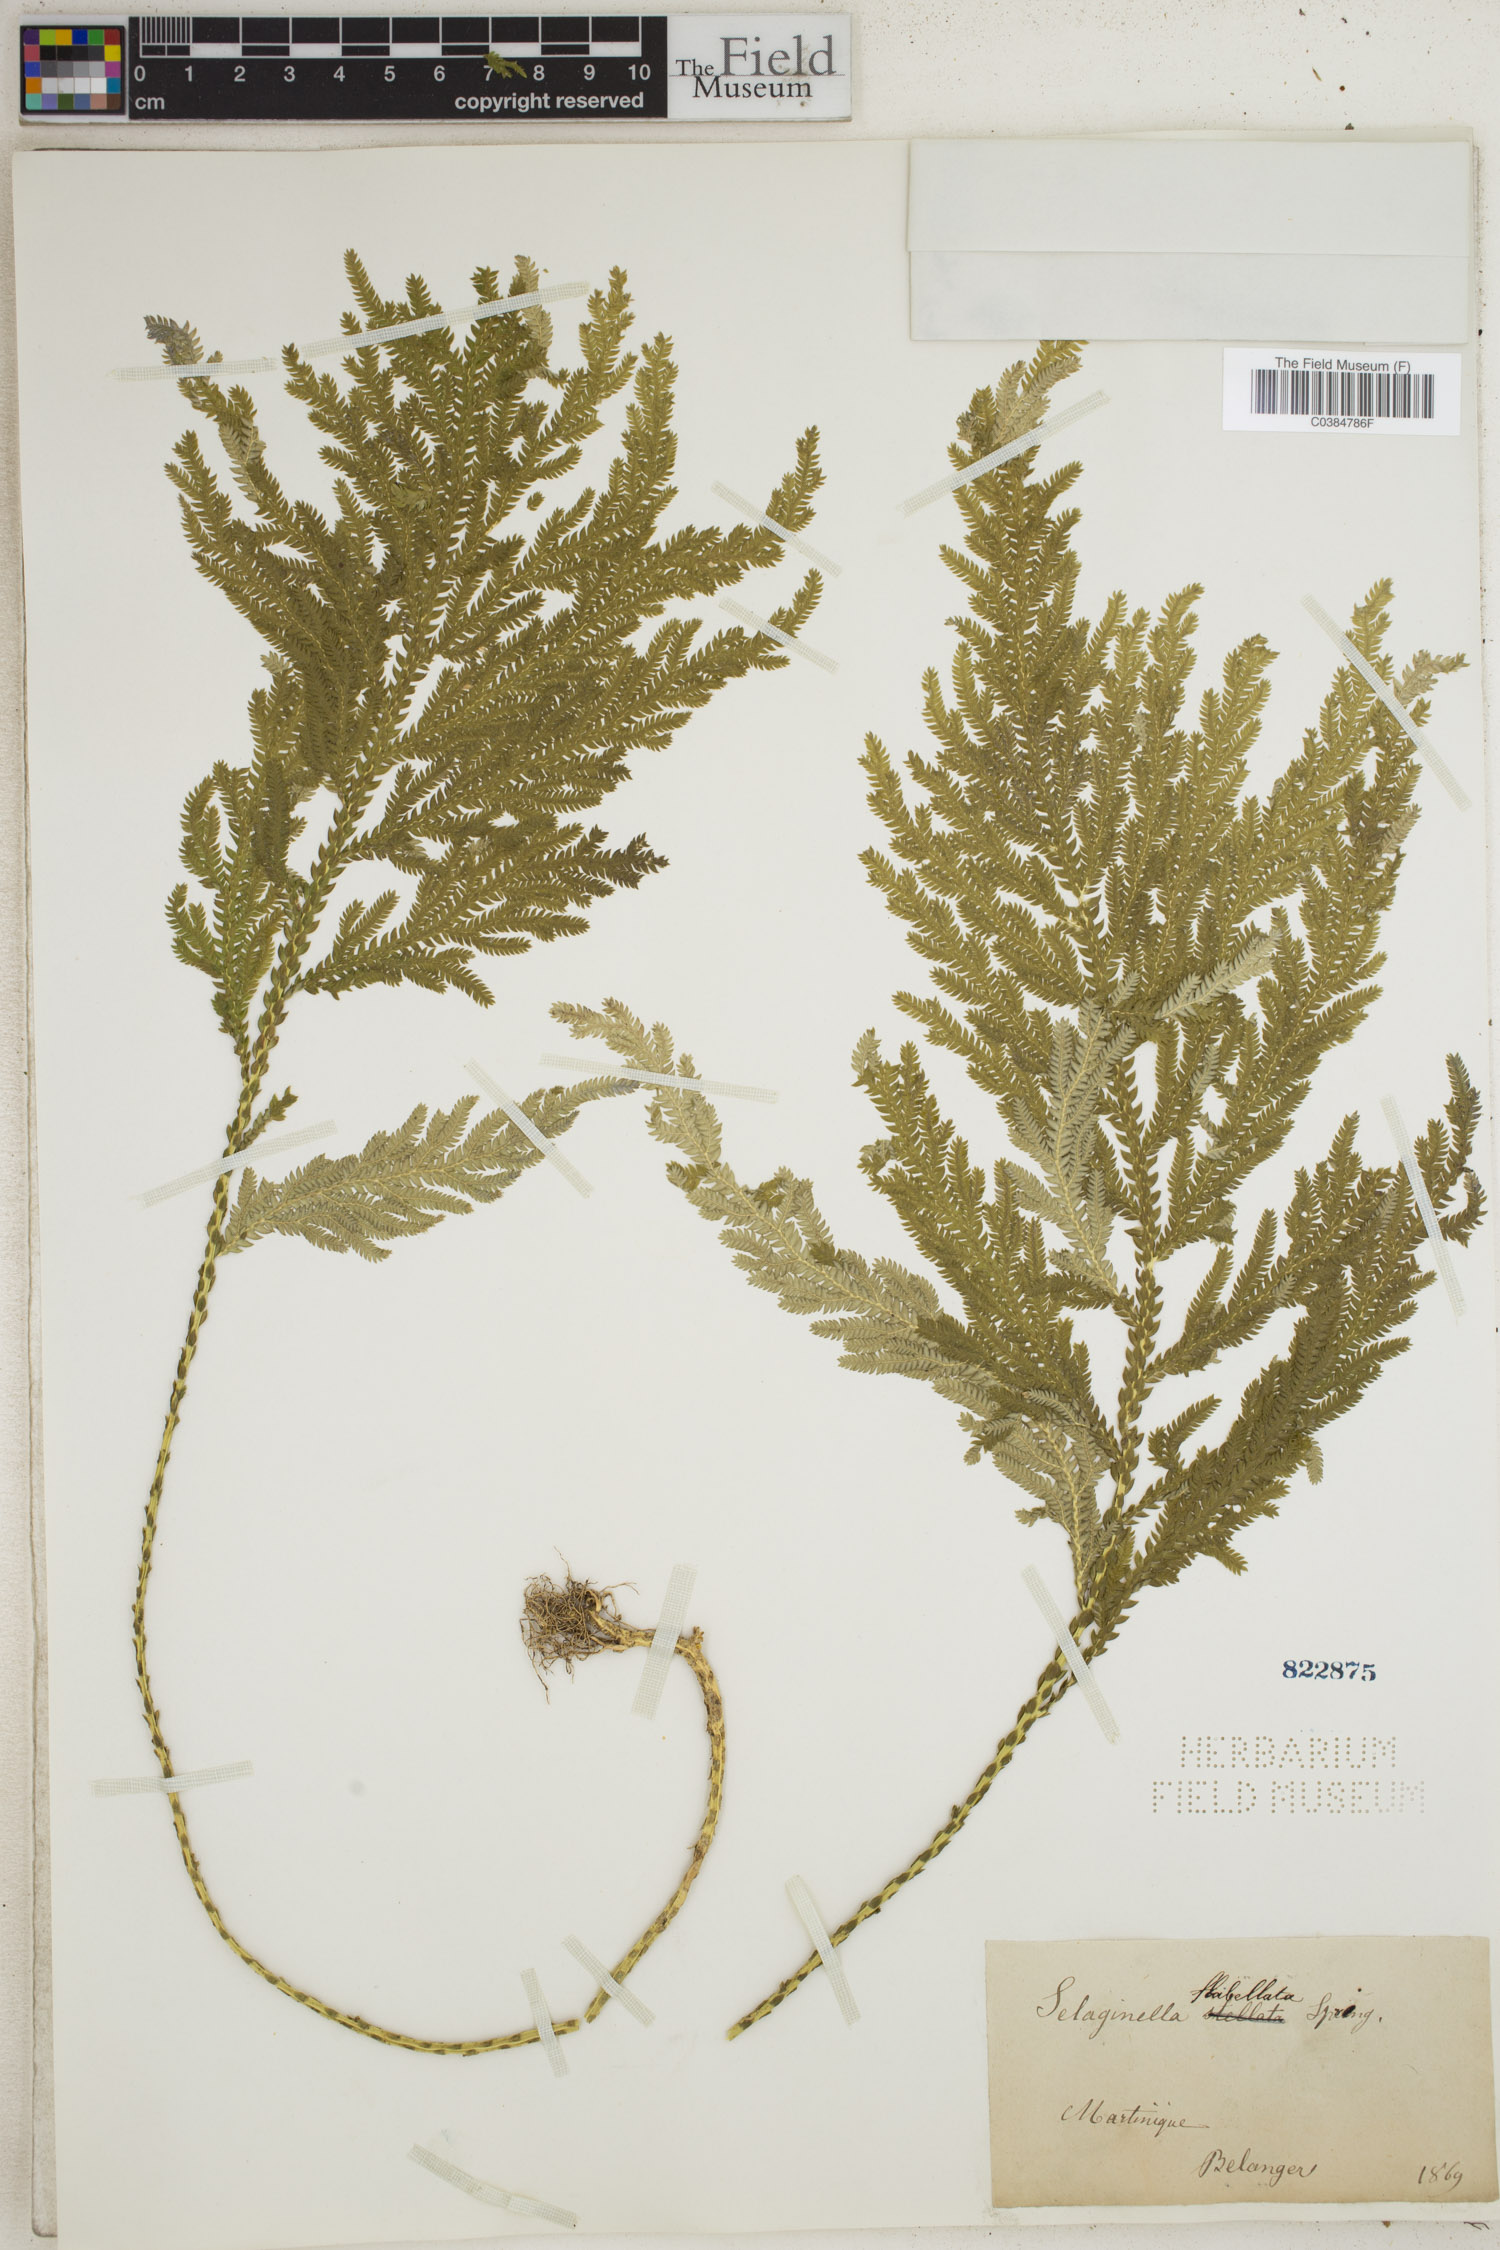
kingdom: Plantae
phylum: Tracheophyta
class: Lycopodiopsida
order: Selaginellales
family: Selaginellaceae
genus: Selaginella
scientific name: Selaginella flabellata
